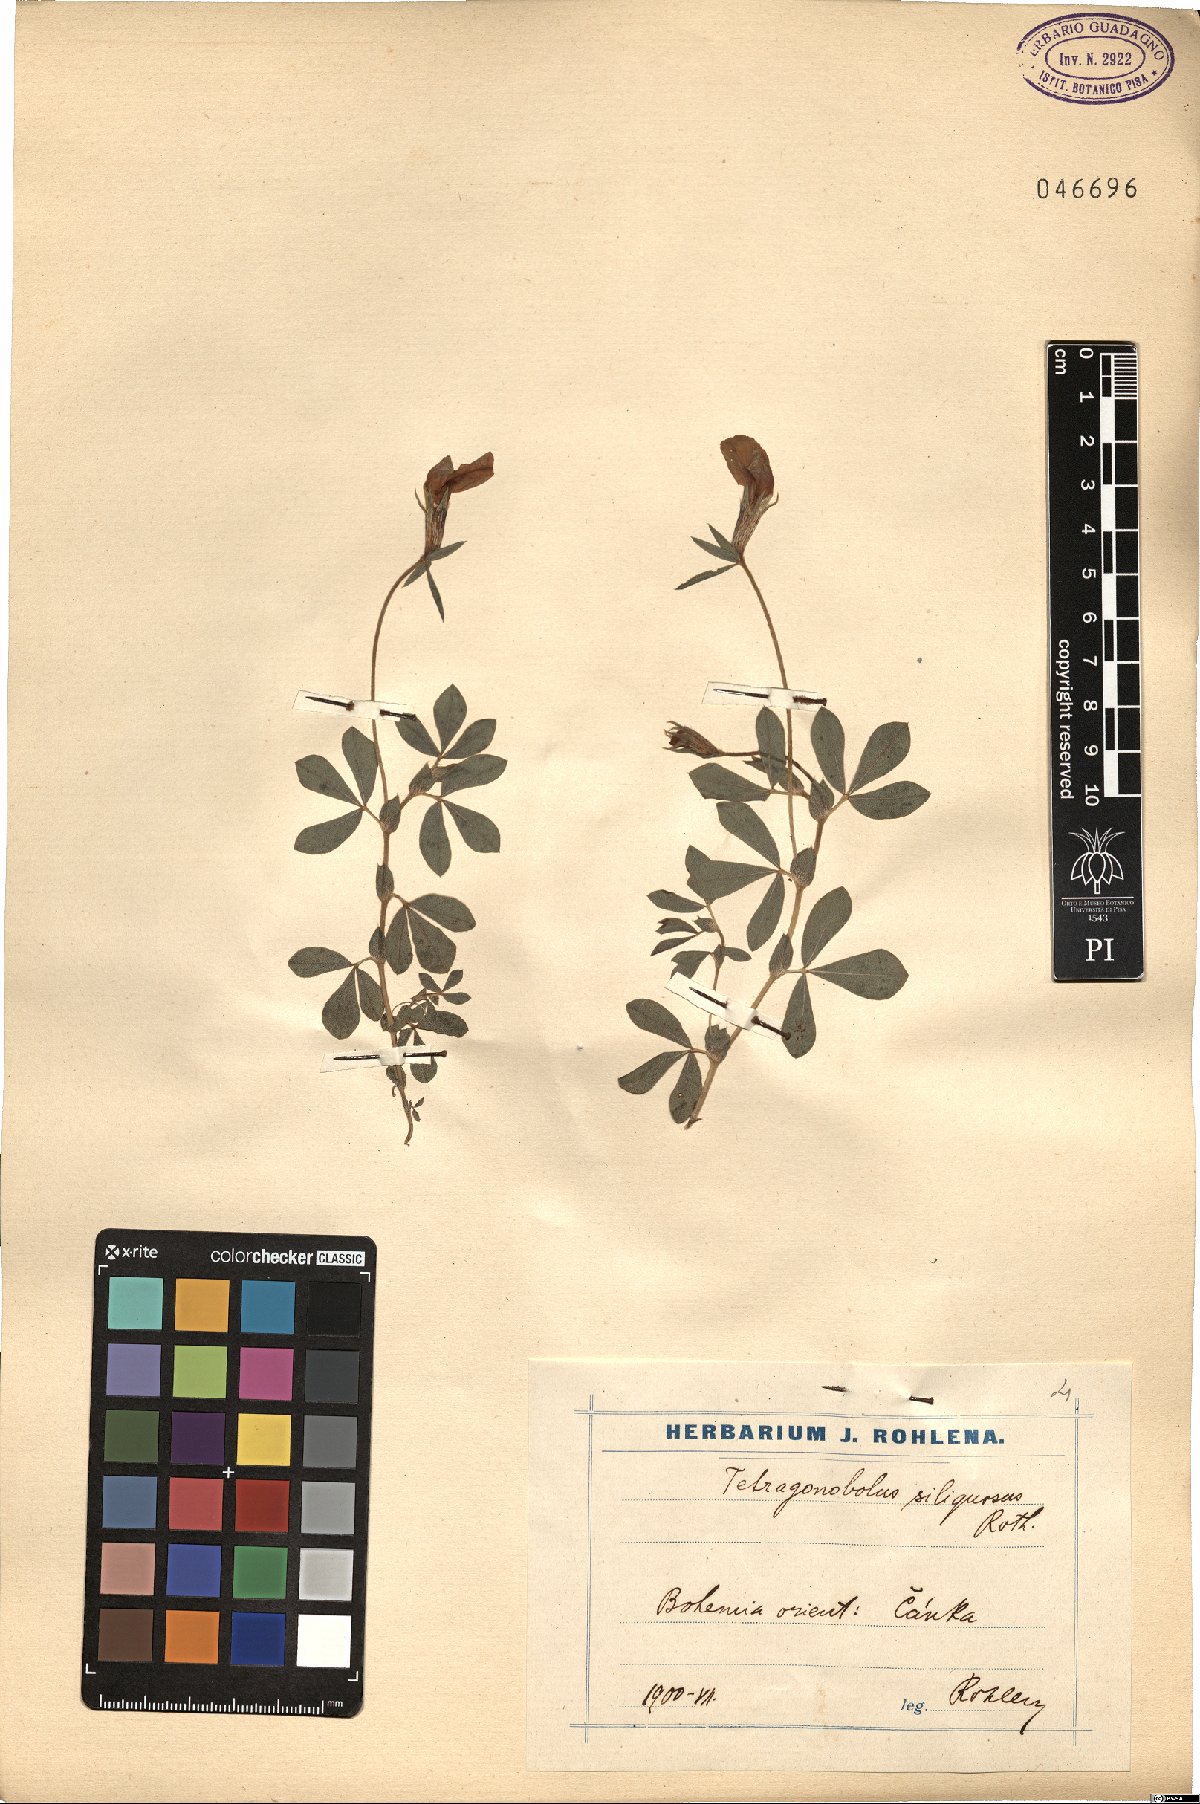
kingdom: Plantae
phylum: Tracheophyta
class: Magnoliopsida
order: Fabales
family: Fabaceae
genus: Lathyrus
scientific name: Lathyrus inconspicuus
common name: Inconspicuous pea
